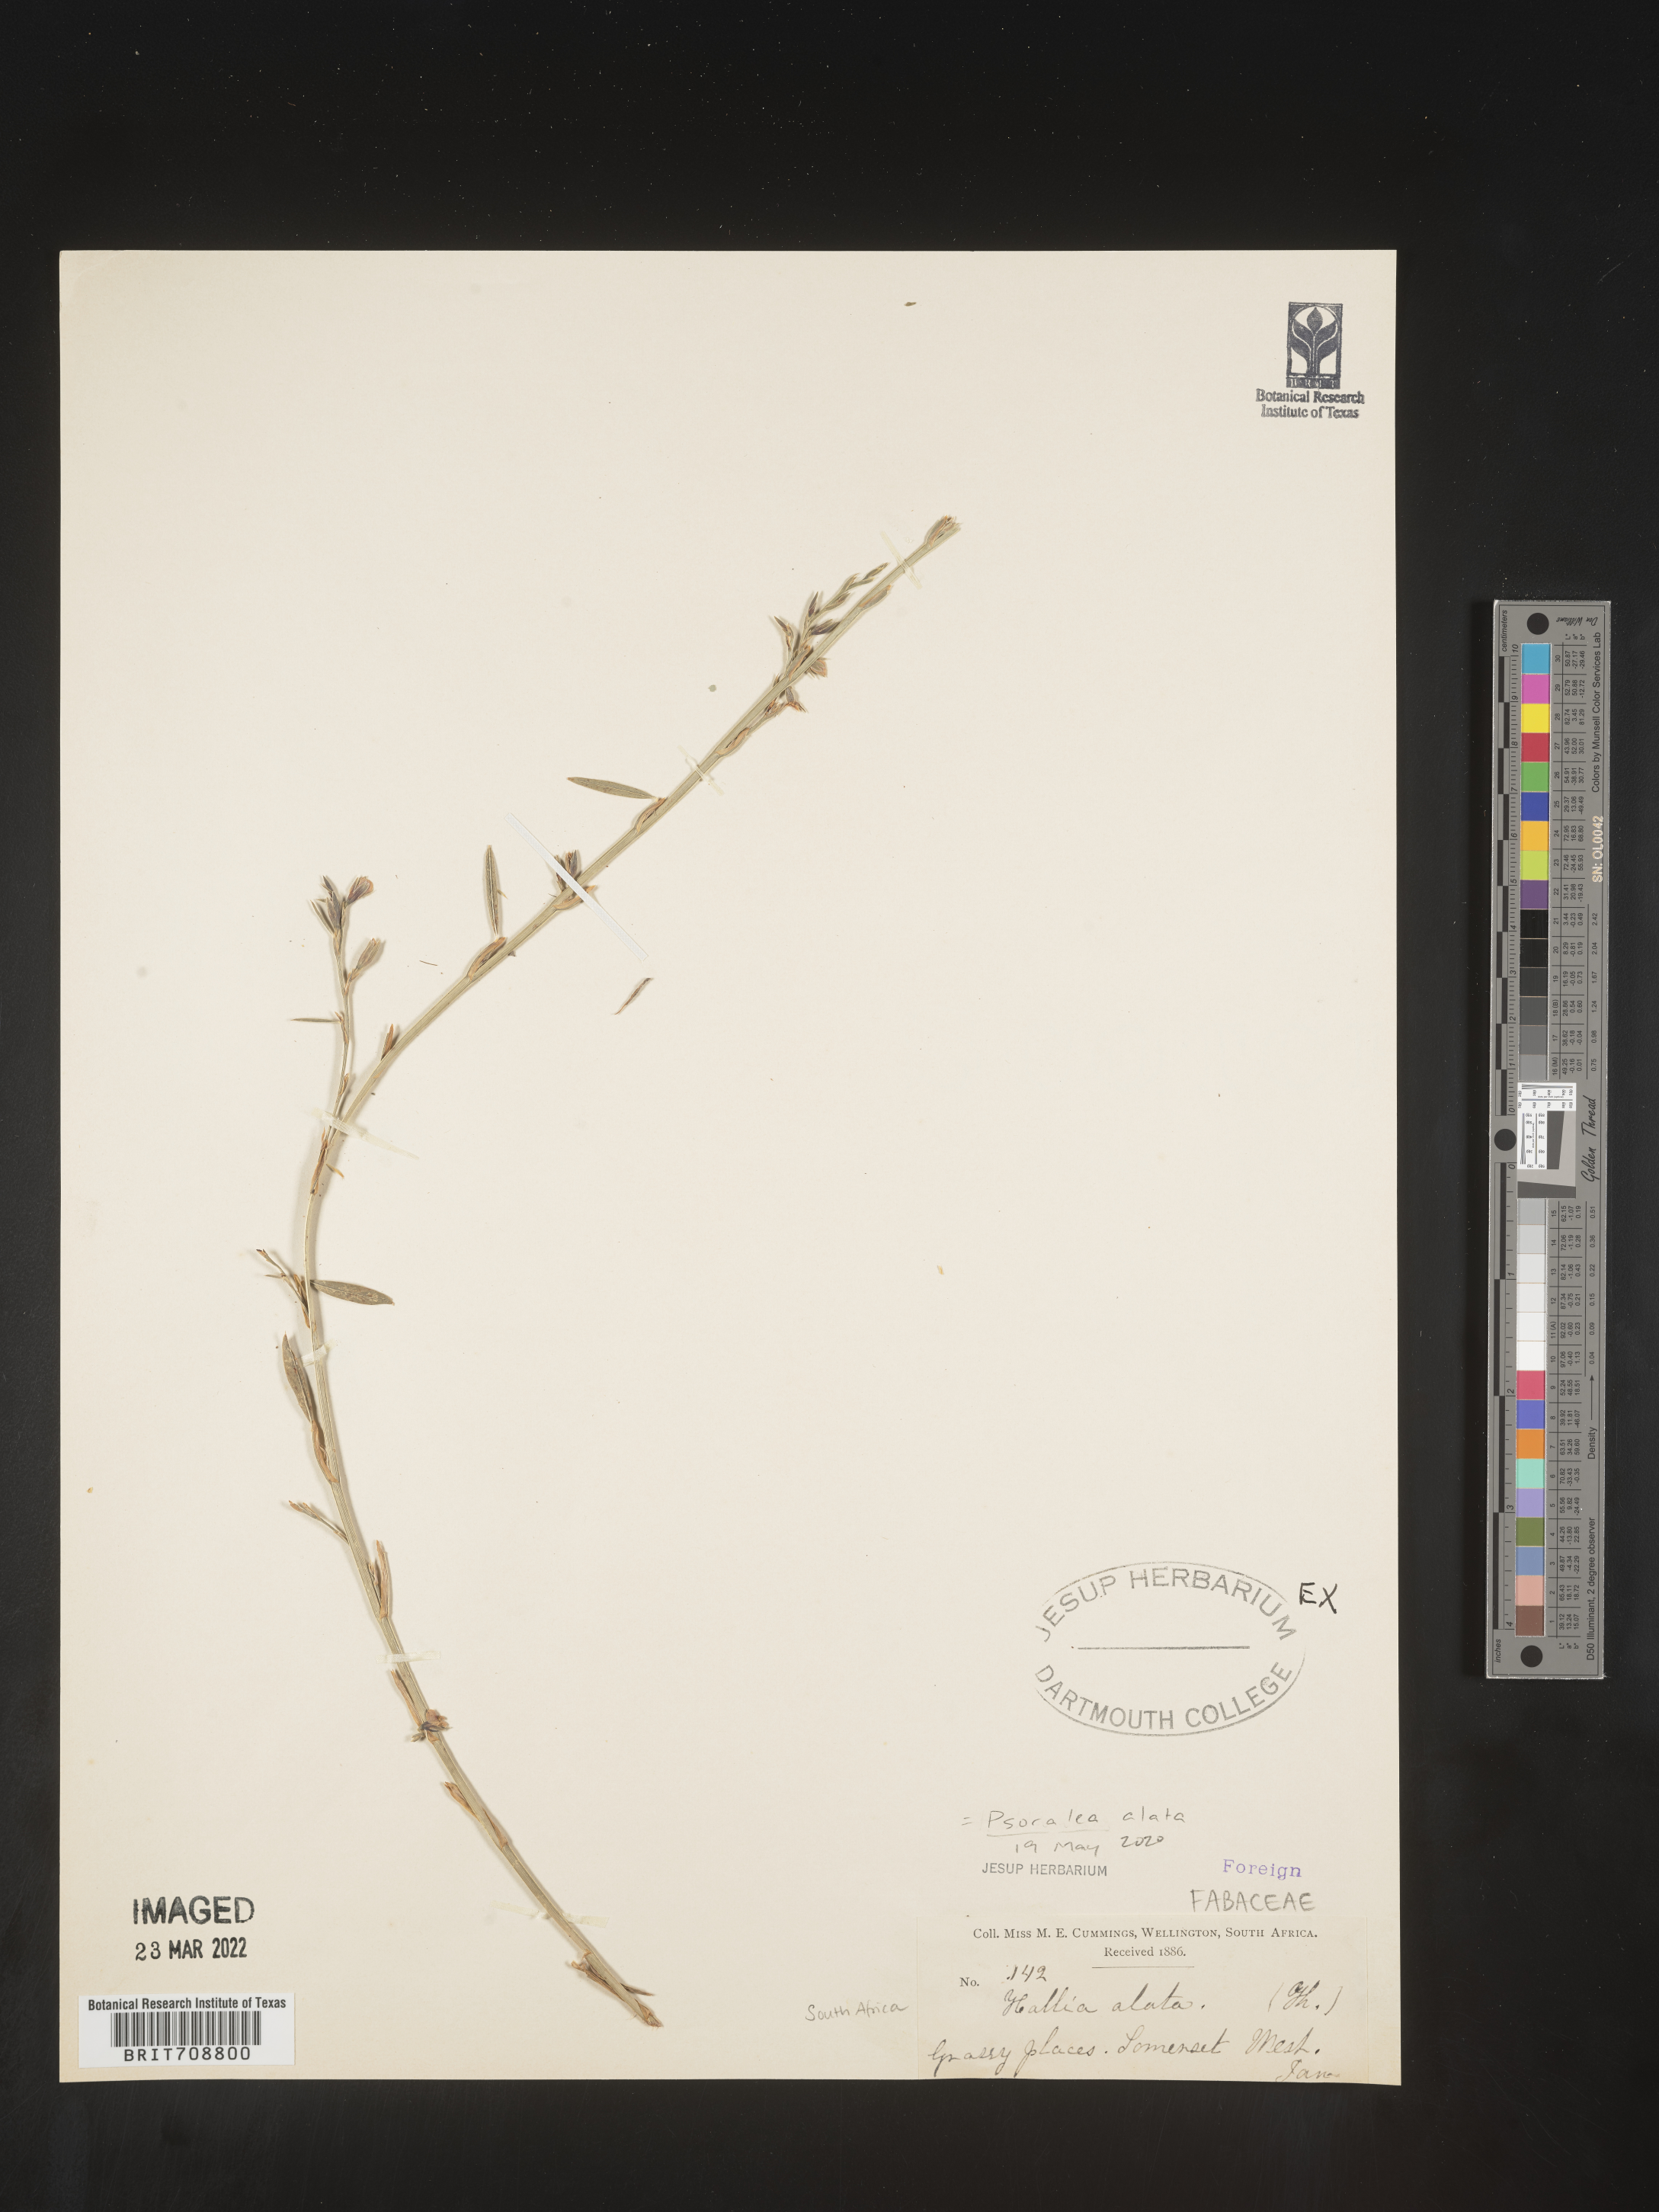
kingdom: Plantae
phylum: Tracheophyta
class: Magnoliopsida
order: Fabales
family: Fabaceae
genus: Psoralea
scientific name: Psoralea
